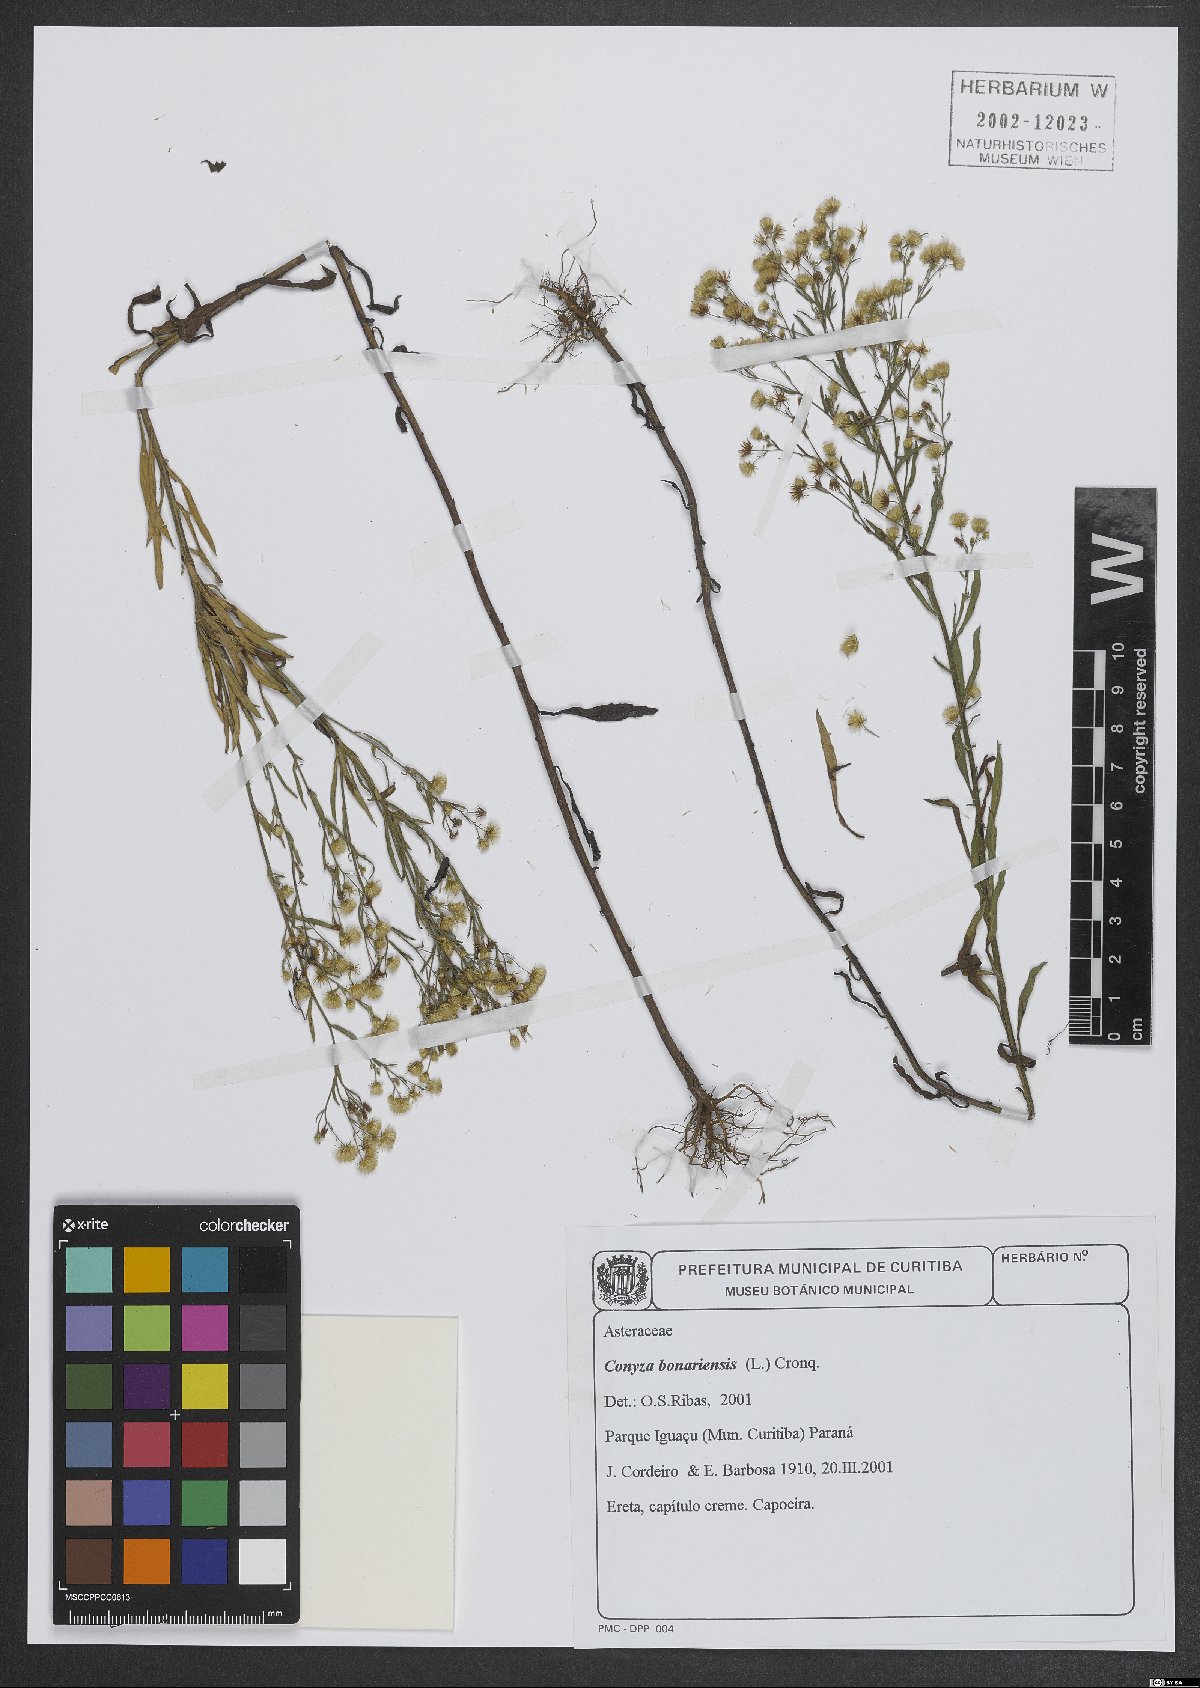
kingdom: Plantae
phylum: Tracheophyta
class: Magnoliopsida
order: Asterales
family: Asteraceae
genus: Erigeron
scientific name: Erigeron bonariensis
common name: Argentine fleabane
